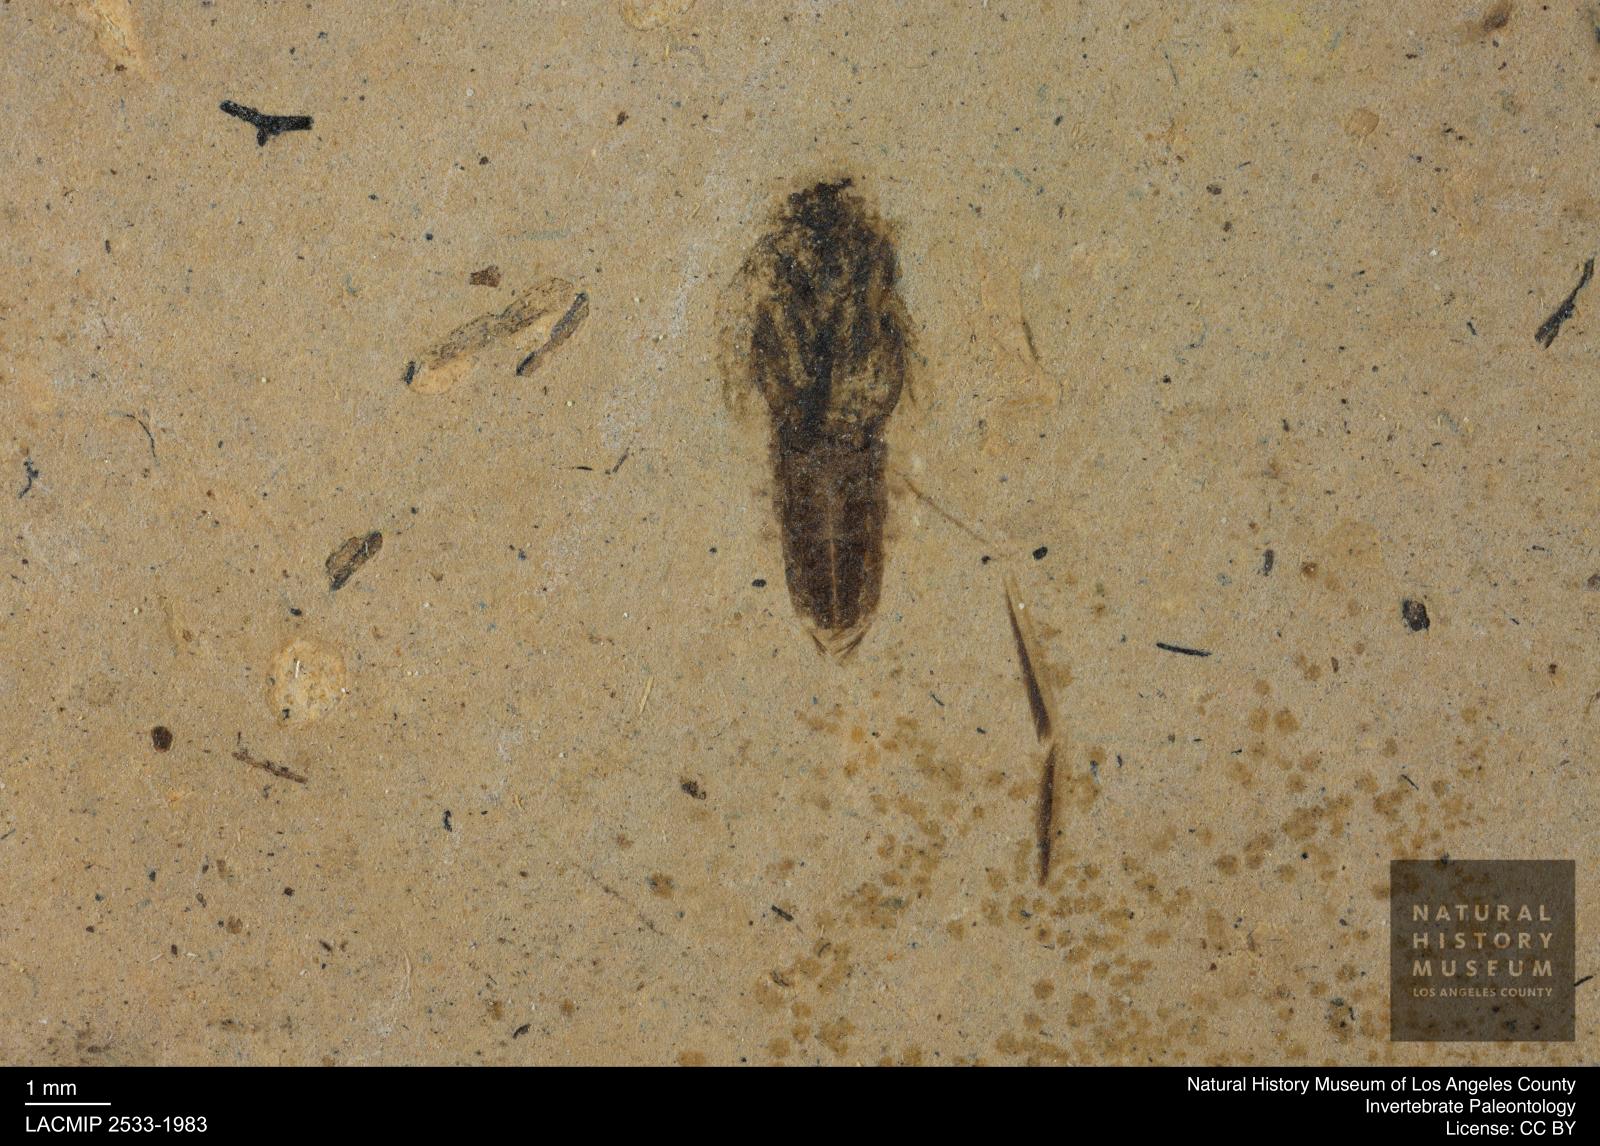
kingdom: Animalia
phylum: Arthropoda
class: Insecta
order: Hemiptera
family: Notonectidae
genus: Notonecta
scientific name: Notonecta
